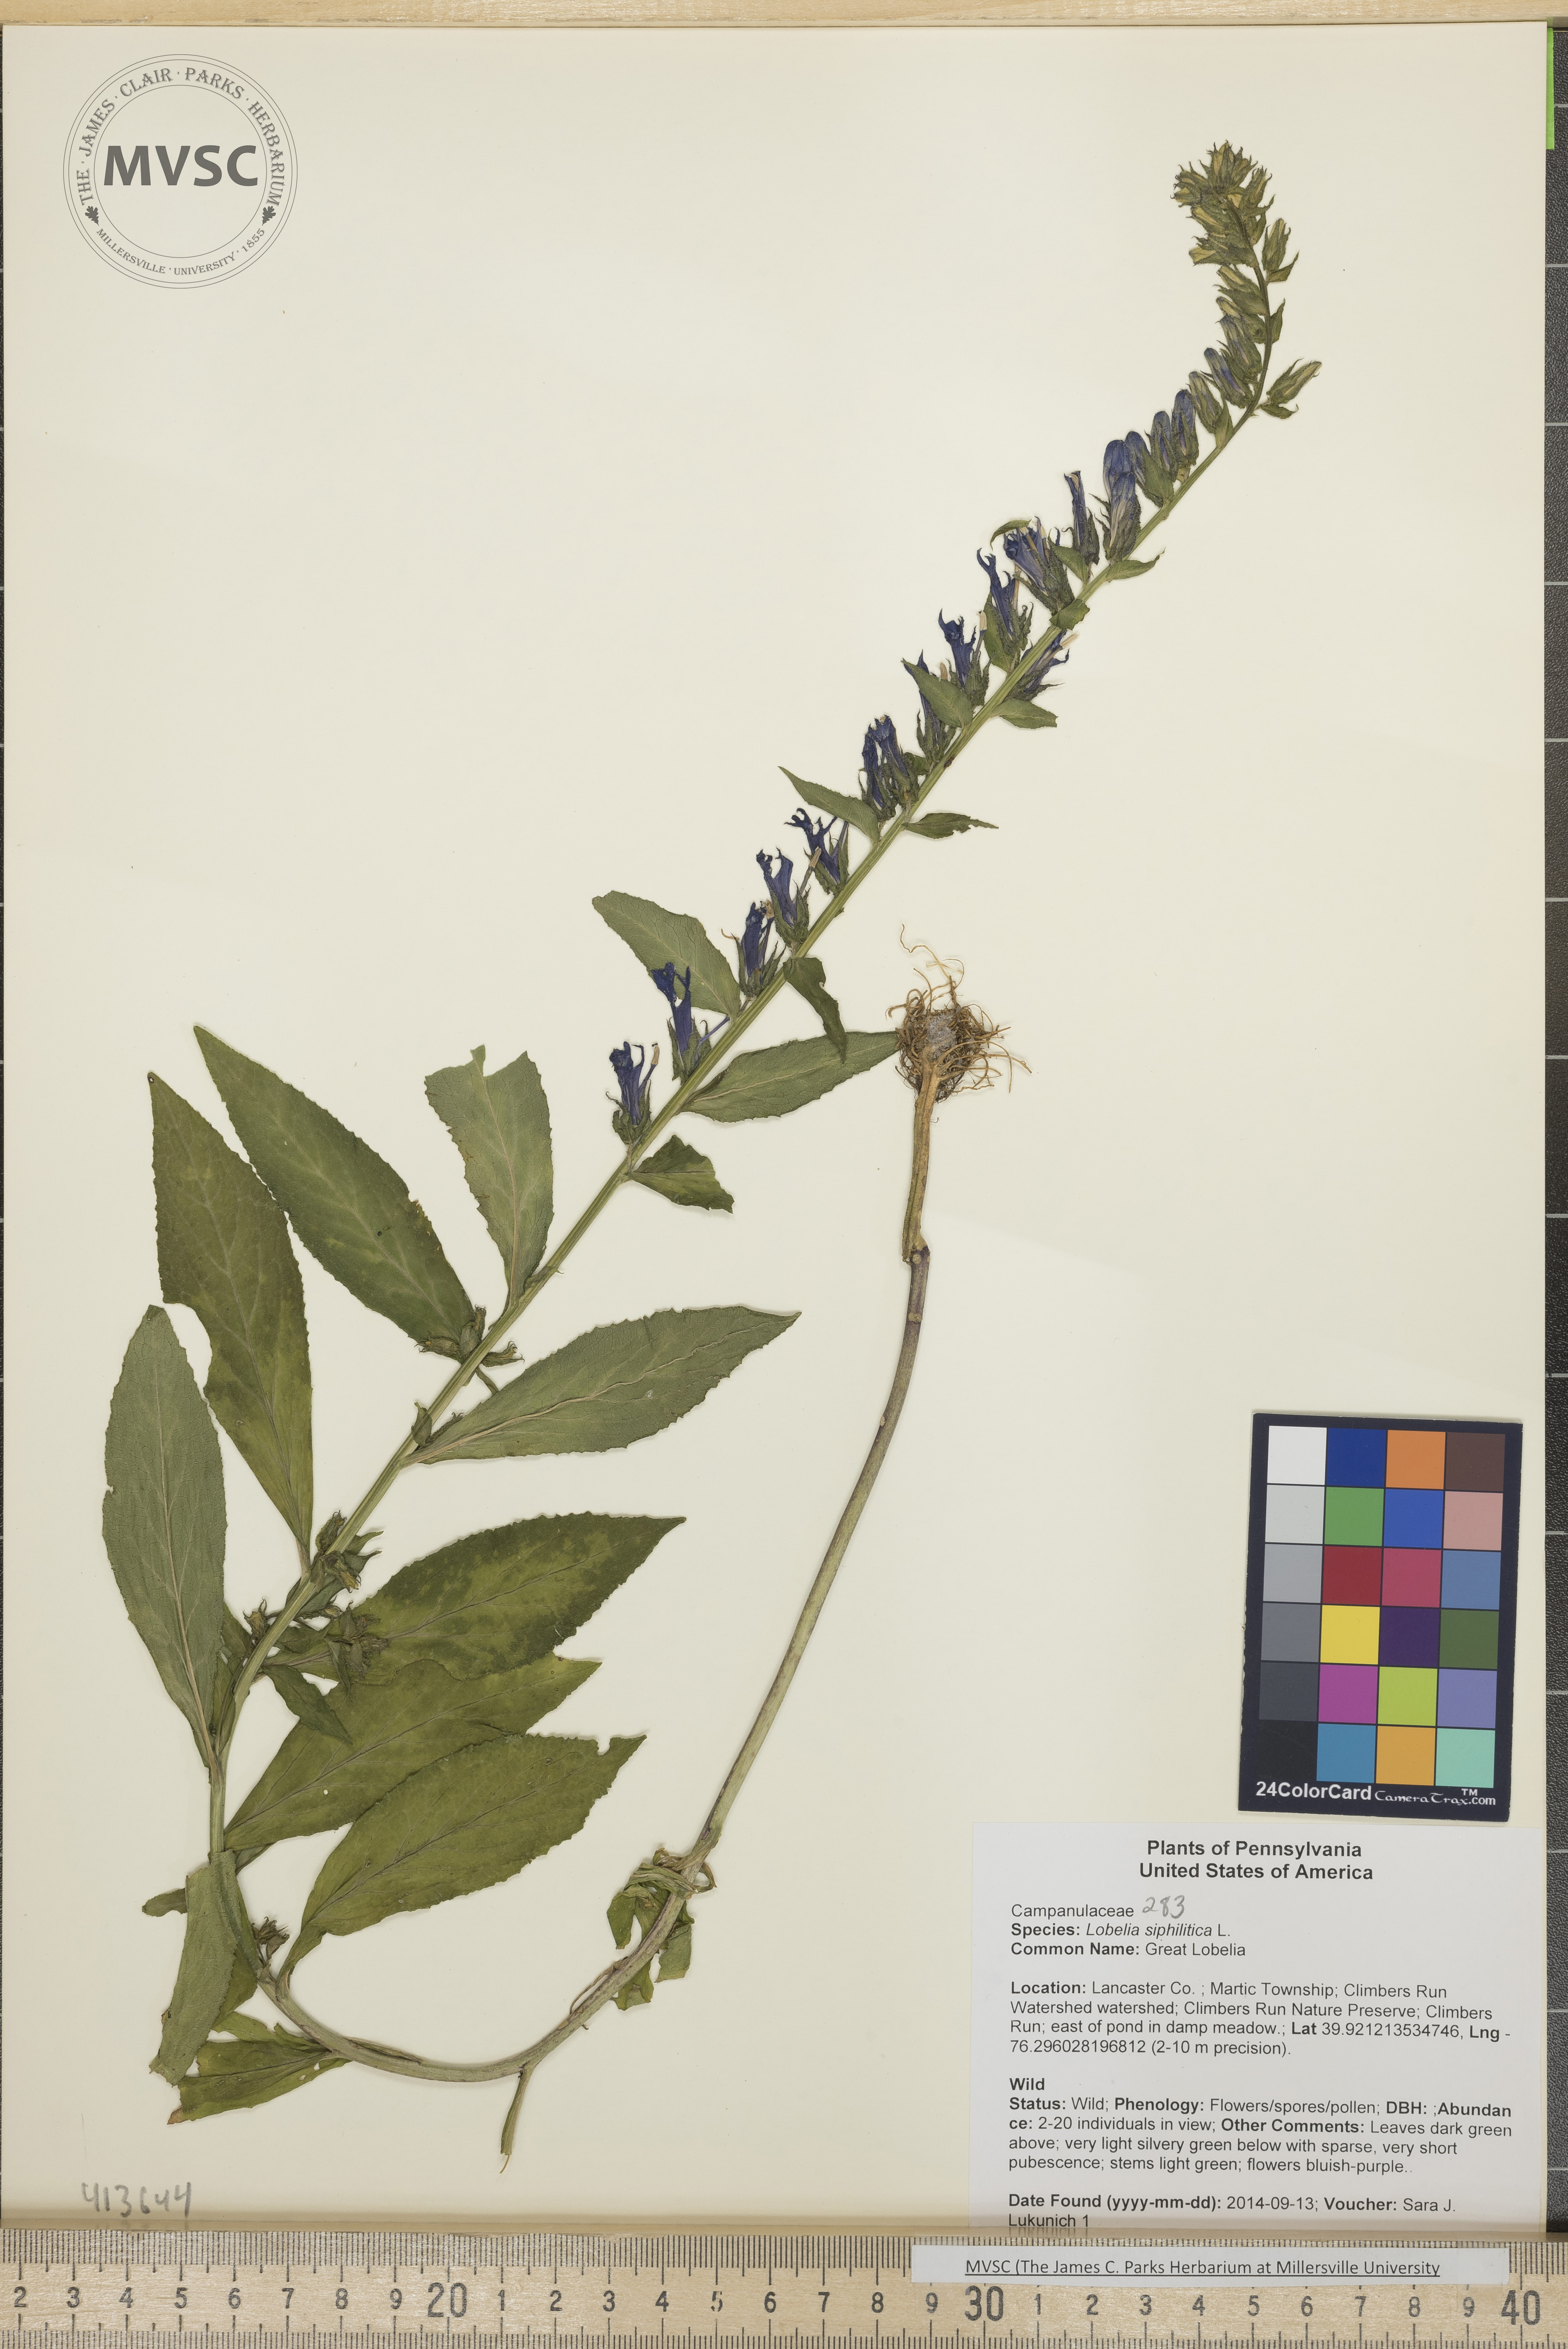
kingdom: Plantae
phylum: Tracheophyta
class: Magnoliopsida
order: Asterales
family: Campanulaceae
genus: Lobelia
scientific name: Lobelia siphilitica
